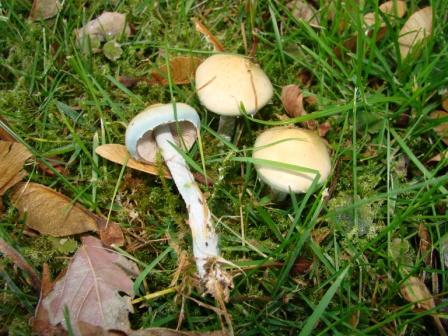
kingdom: Fungi
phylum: Basidiomycota
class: Agaricomycetes
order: Agaricales
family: Strophariaceae
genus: Stropharia
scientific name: Stropharia cyanea
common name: blågrøn bredblad
